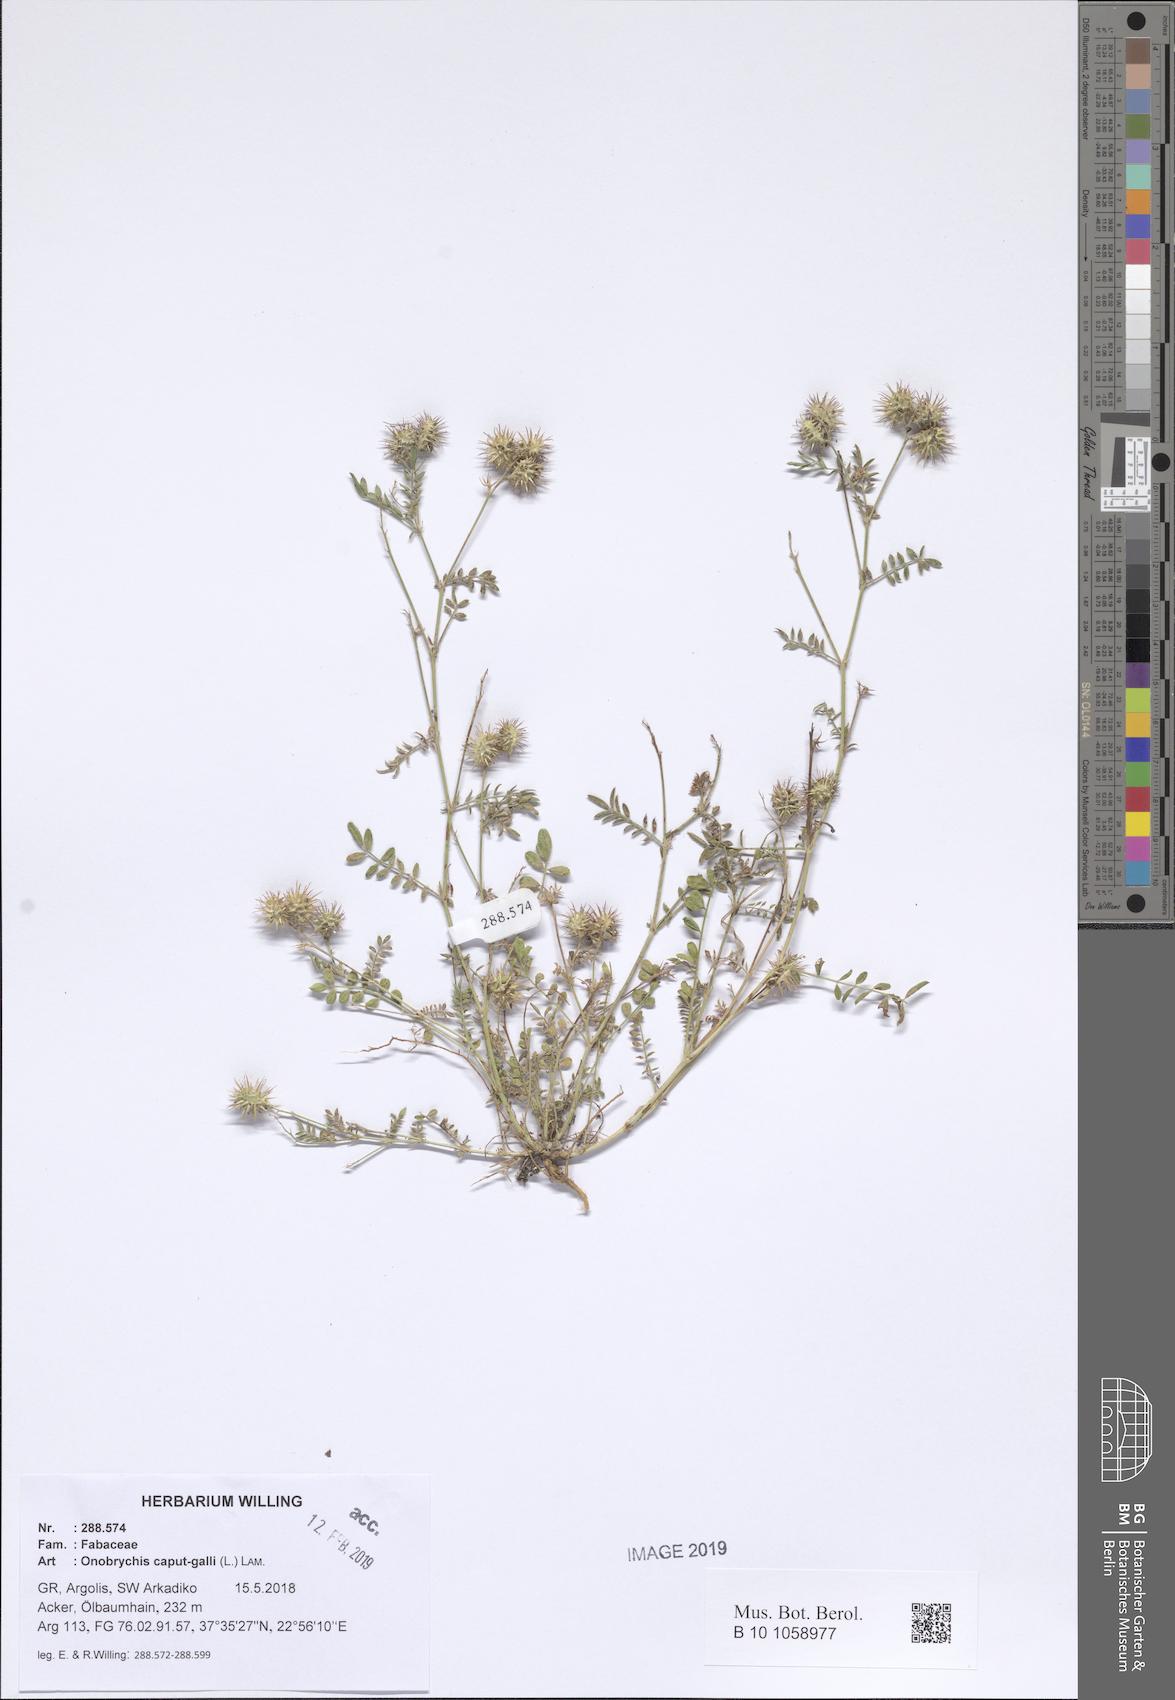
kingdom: Plantae
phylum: Tracheophyta
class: Magnoliopsida
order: Fabales
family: Fabaceae
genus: Onobrychis
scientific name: Onobrychis caput-galli
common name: Cockscomb sainfoin
